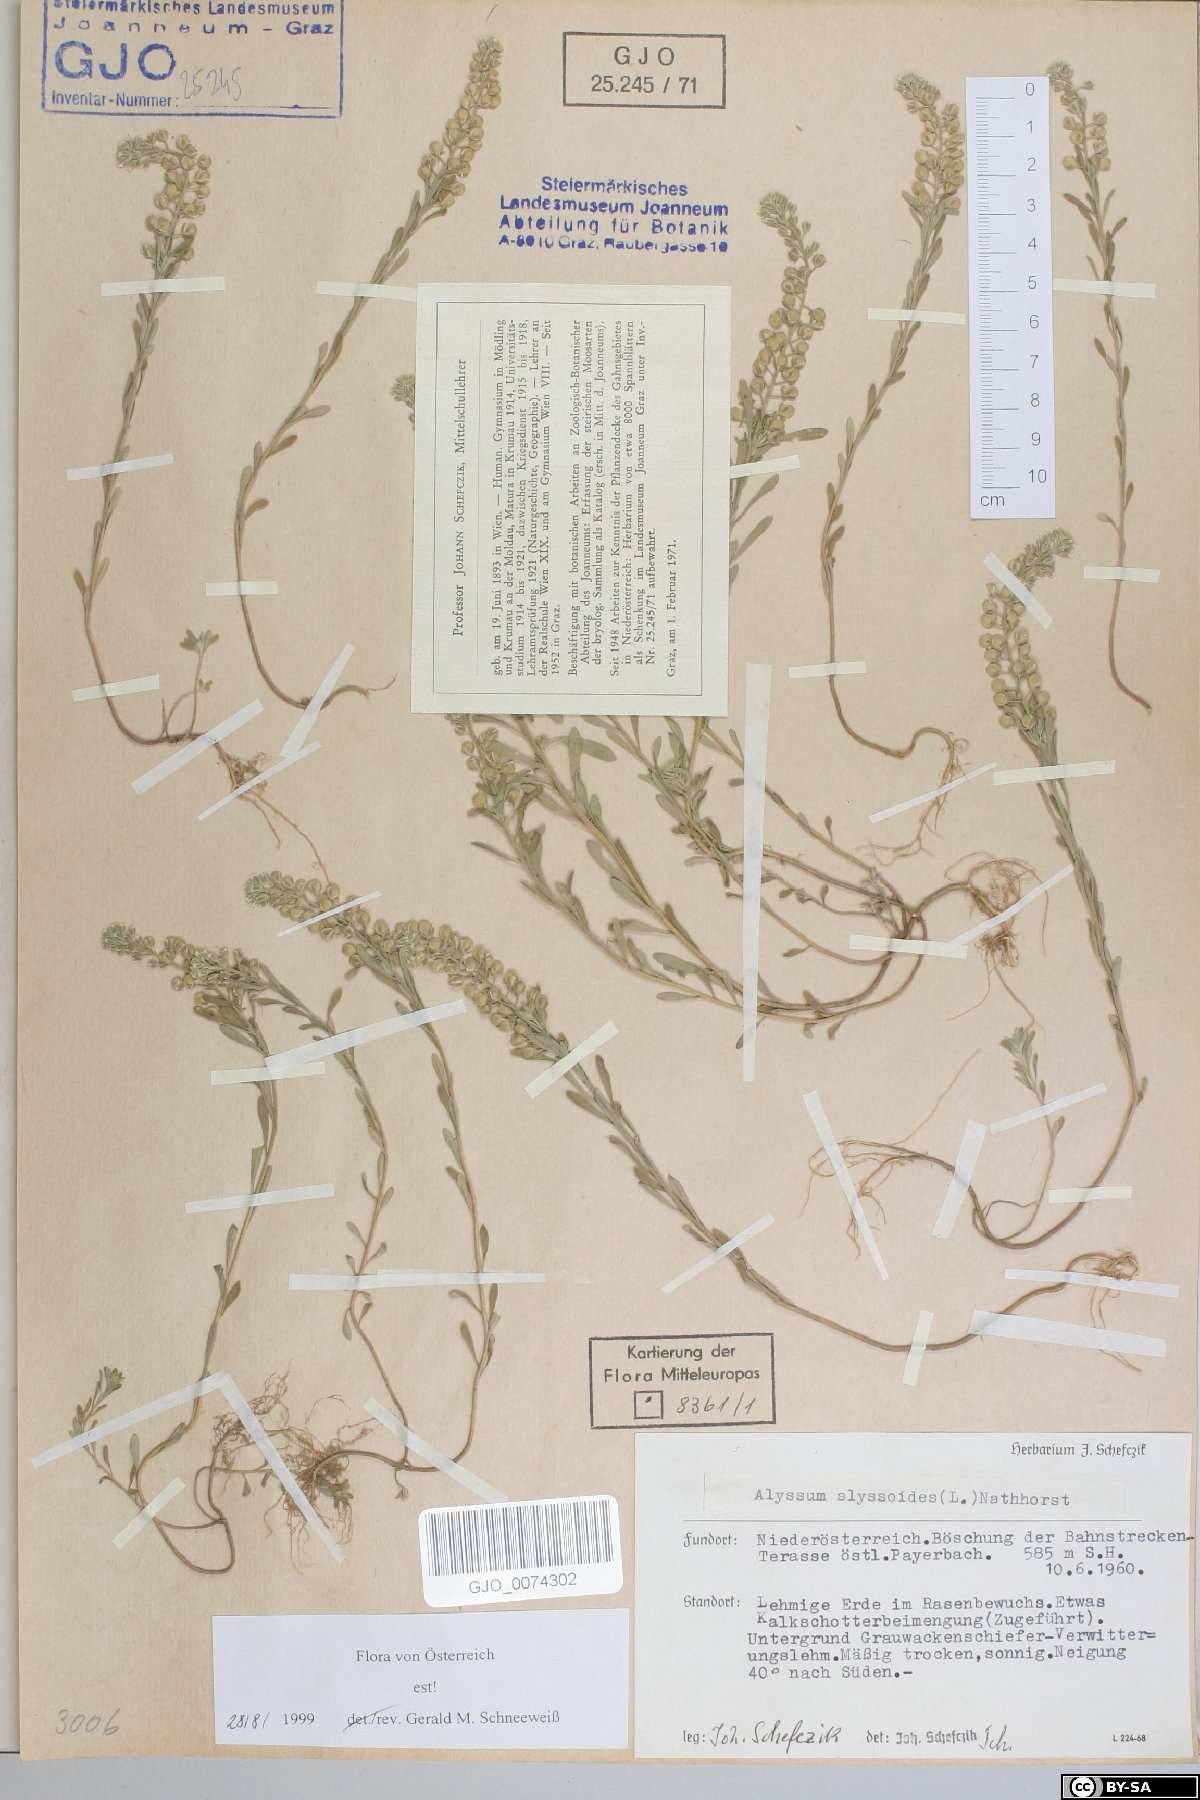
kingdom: Plantae
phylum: Tracheophyta
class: Magnoliopsida
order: Brassicales
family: Brassicaceae
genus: Alyssum
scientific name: Alyssum alyssoides
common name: Small alison
